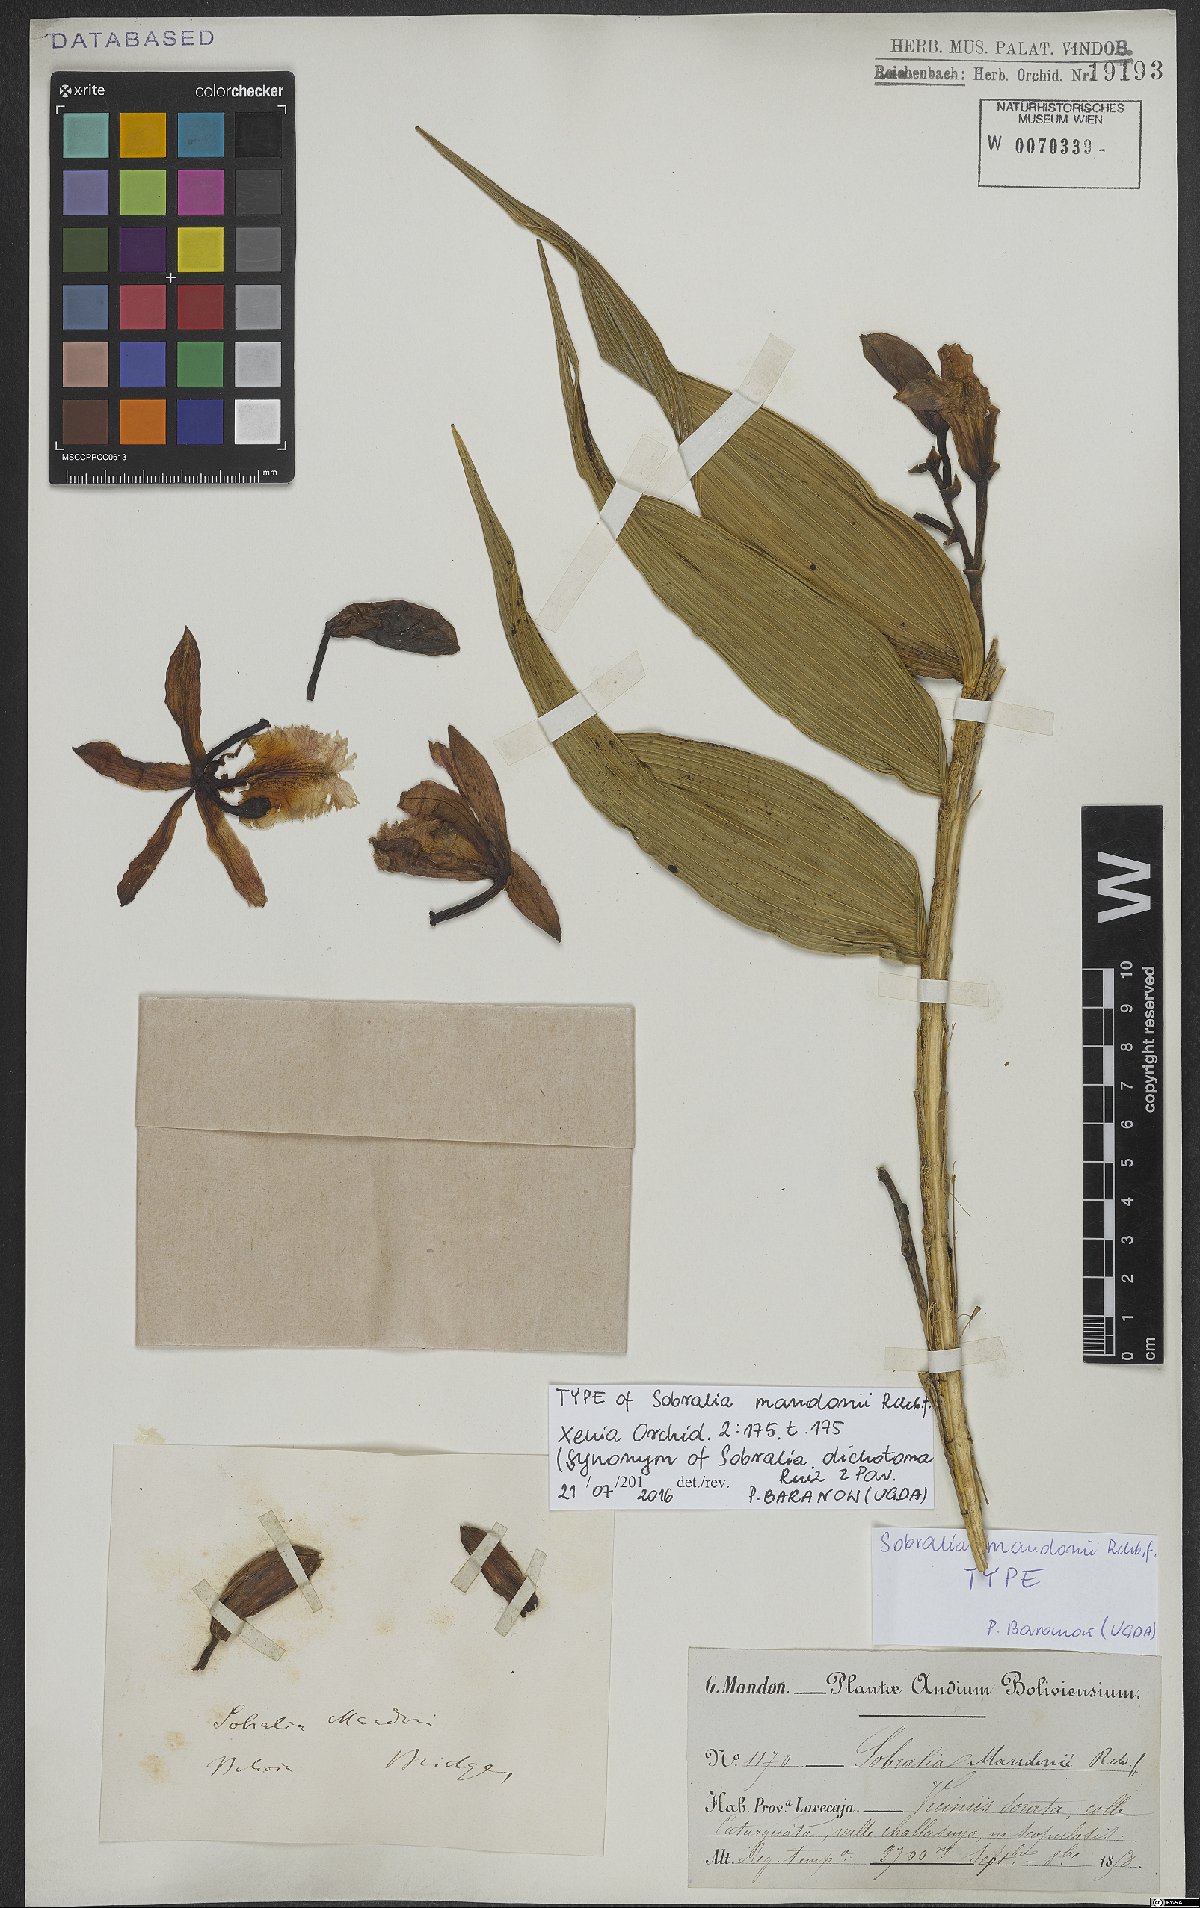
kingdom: Plantae
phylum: Tracheophyta
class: Liliopsida
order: Asparagales
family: Orchidaceae
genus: Sobralia
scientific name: Sobralia dichotoma
